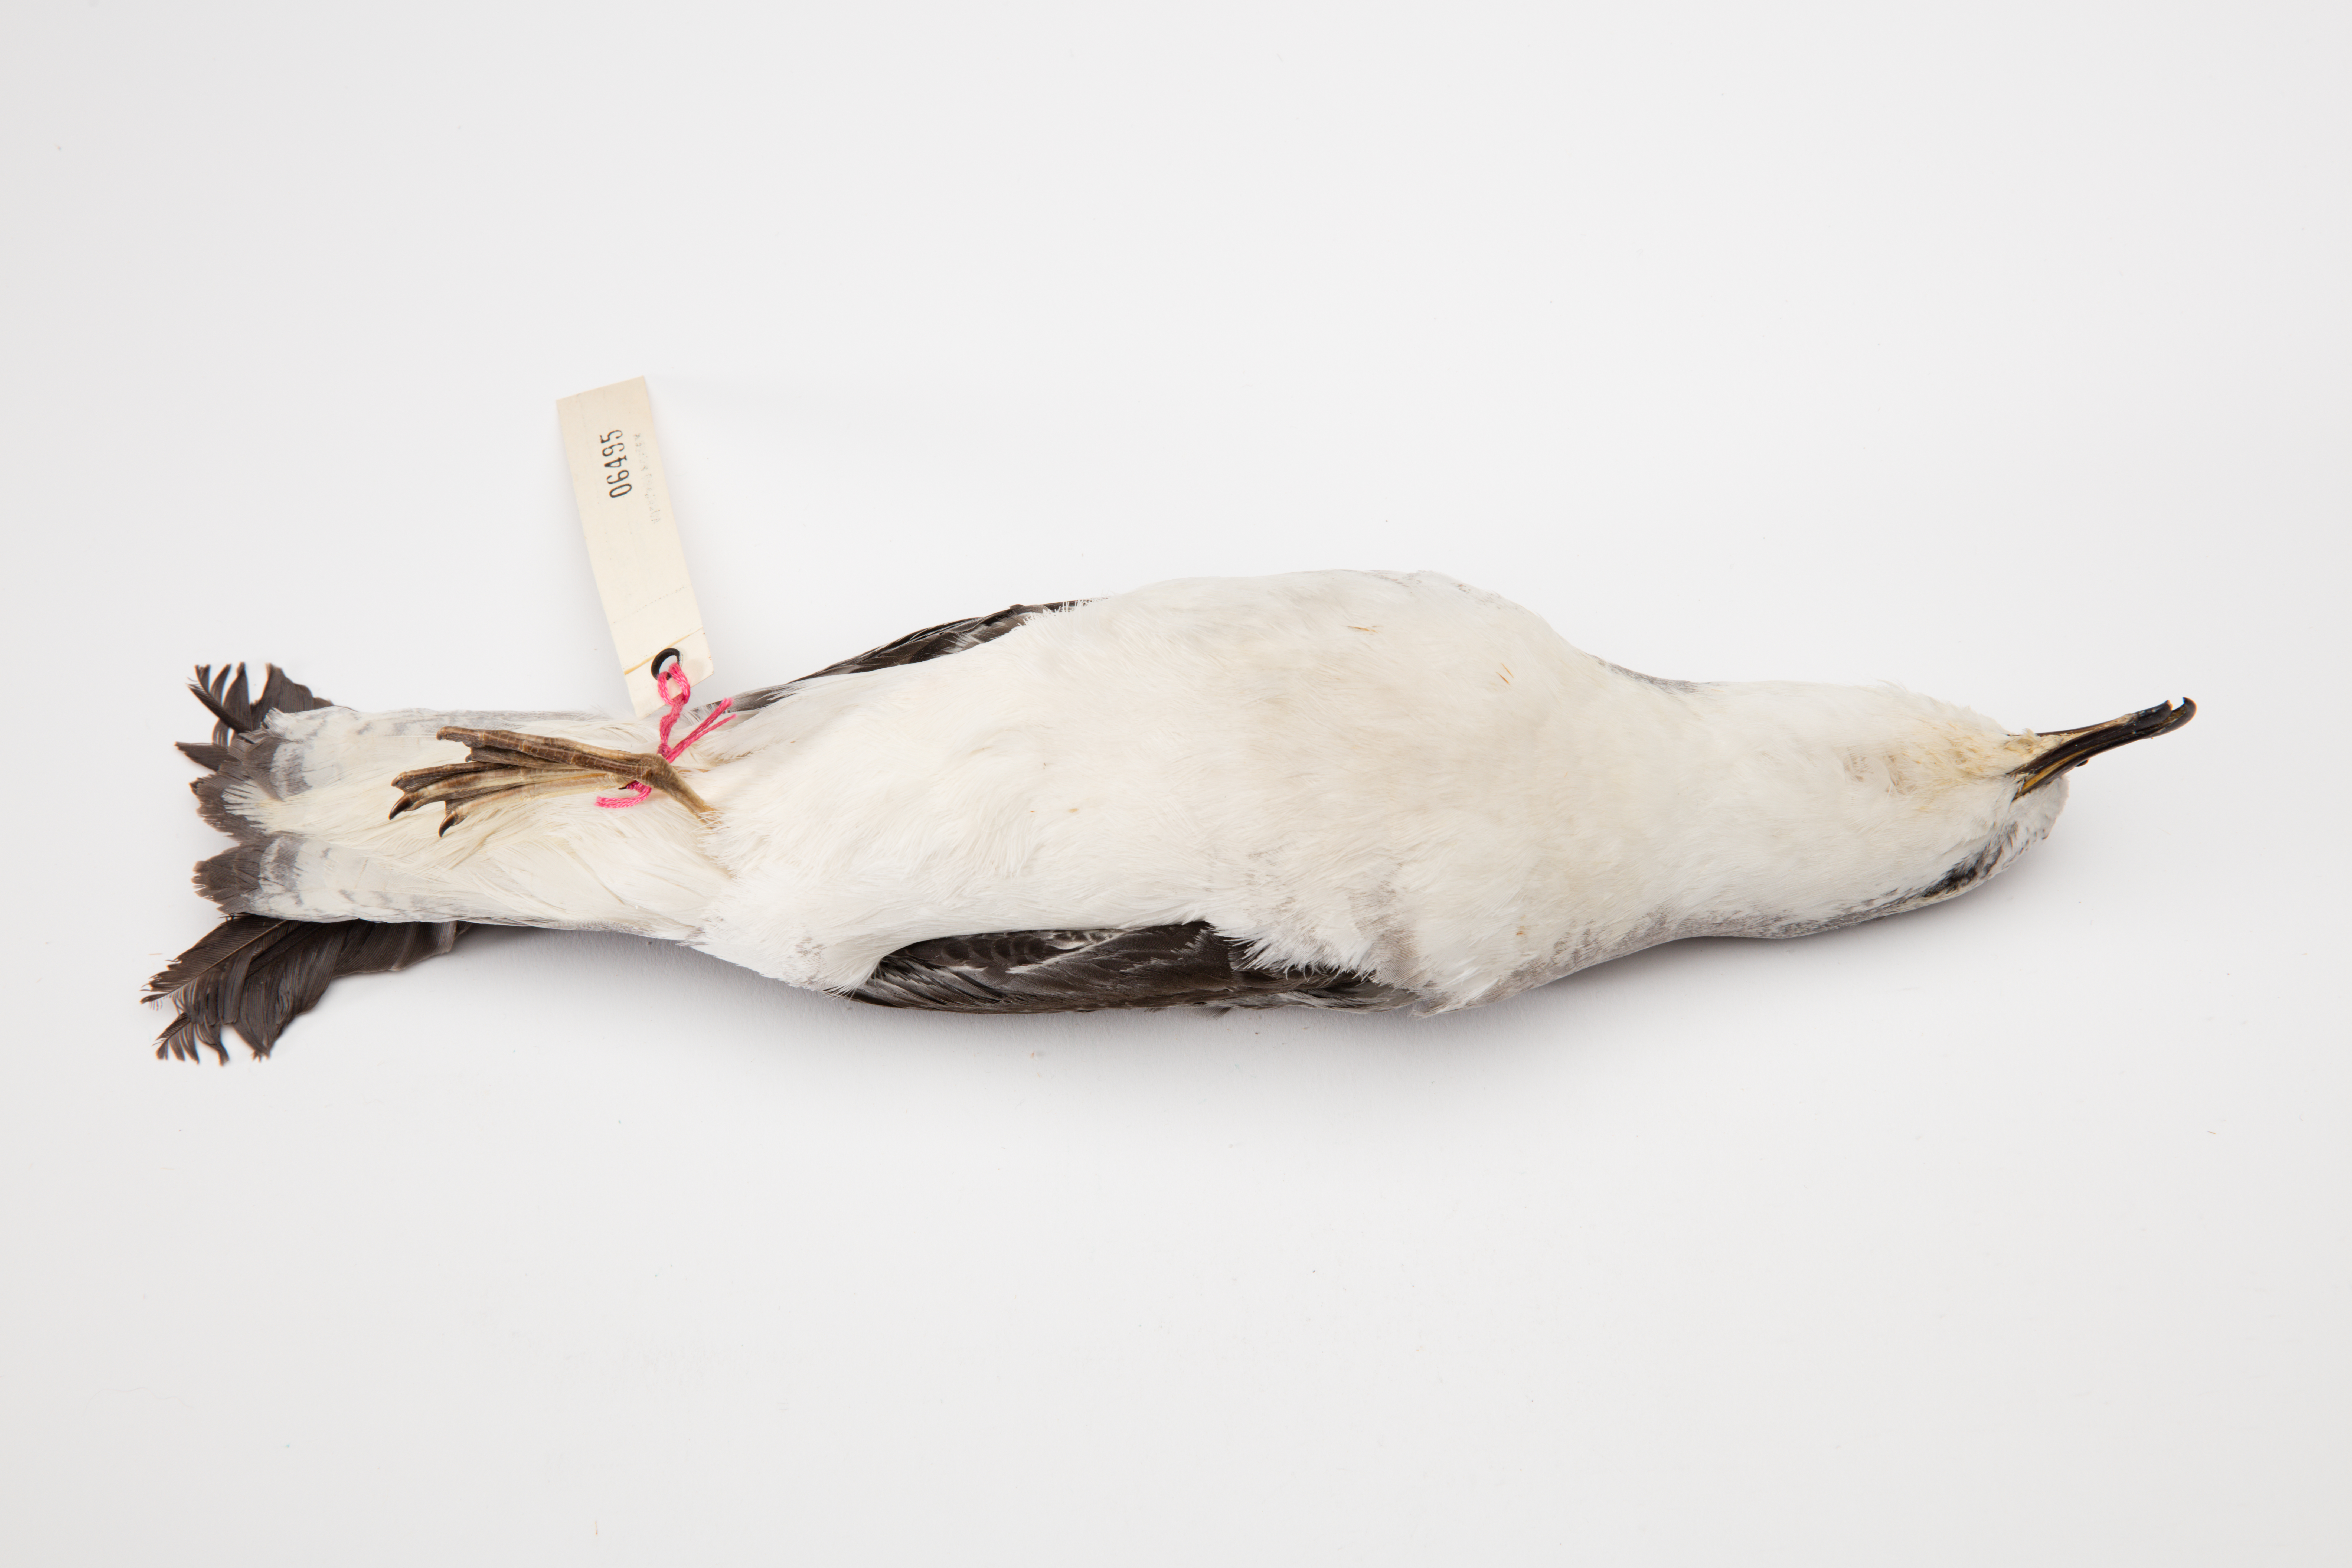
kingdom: Animalia
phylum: Chordata
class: Aves
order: Procellariiformes
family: Procellariidae
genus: Pterodroma
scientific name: Pterodroma cookii
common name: Cook's petrel
